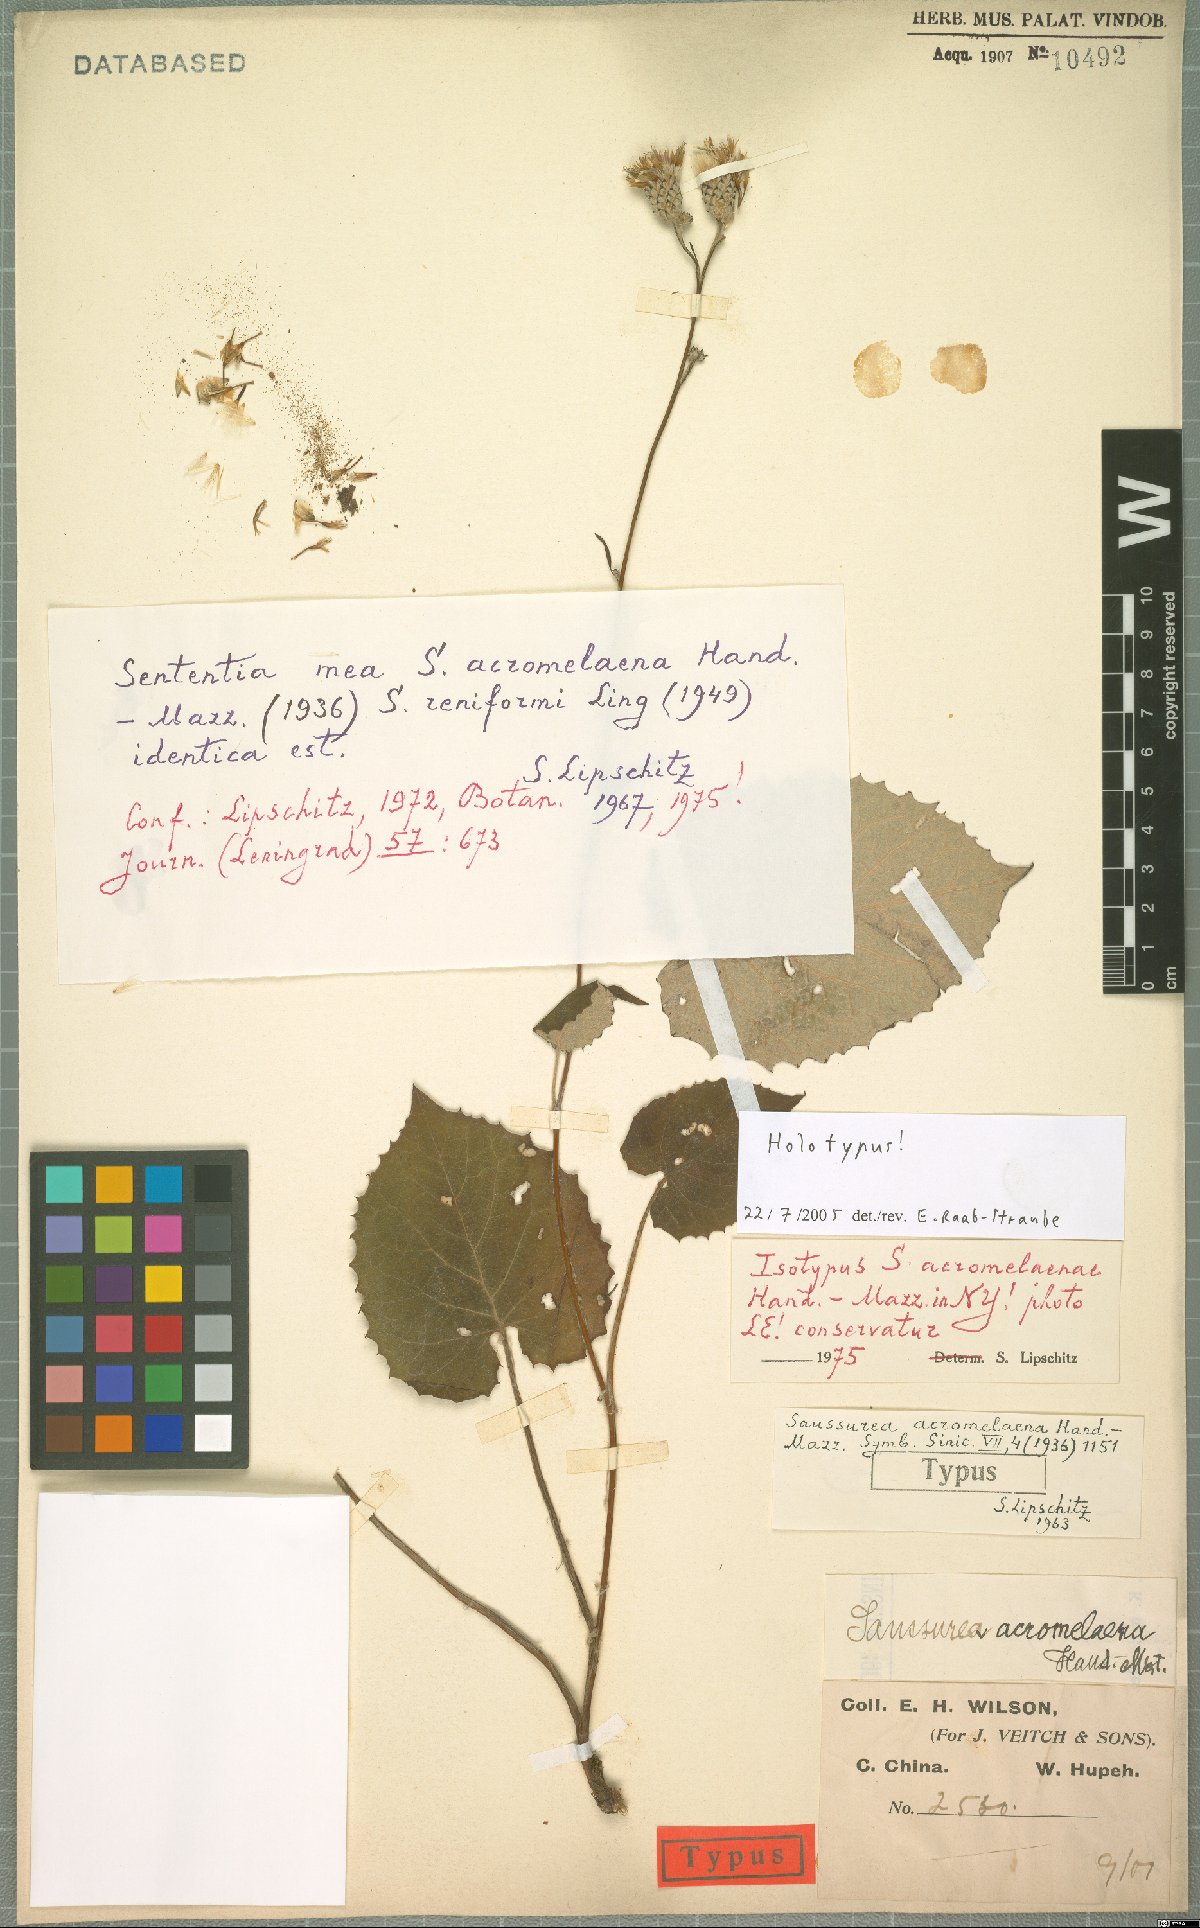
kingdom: Plantae
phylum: Tracheophyta
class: Magnoliopsida
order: Asterales
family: Asteraceae
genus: Saussurea
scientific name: Saussurea acromelaena
